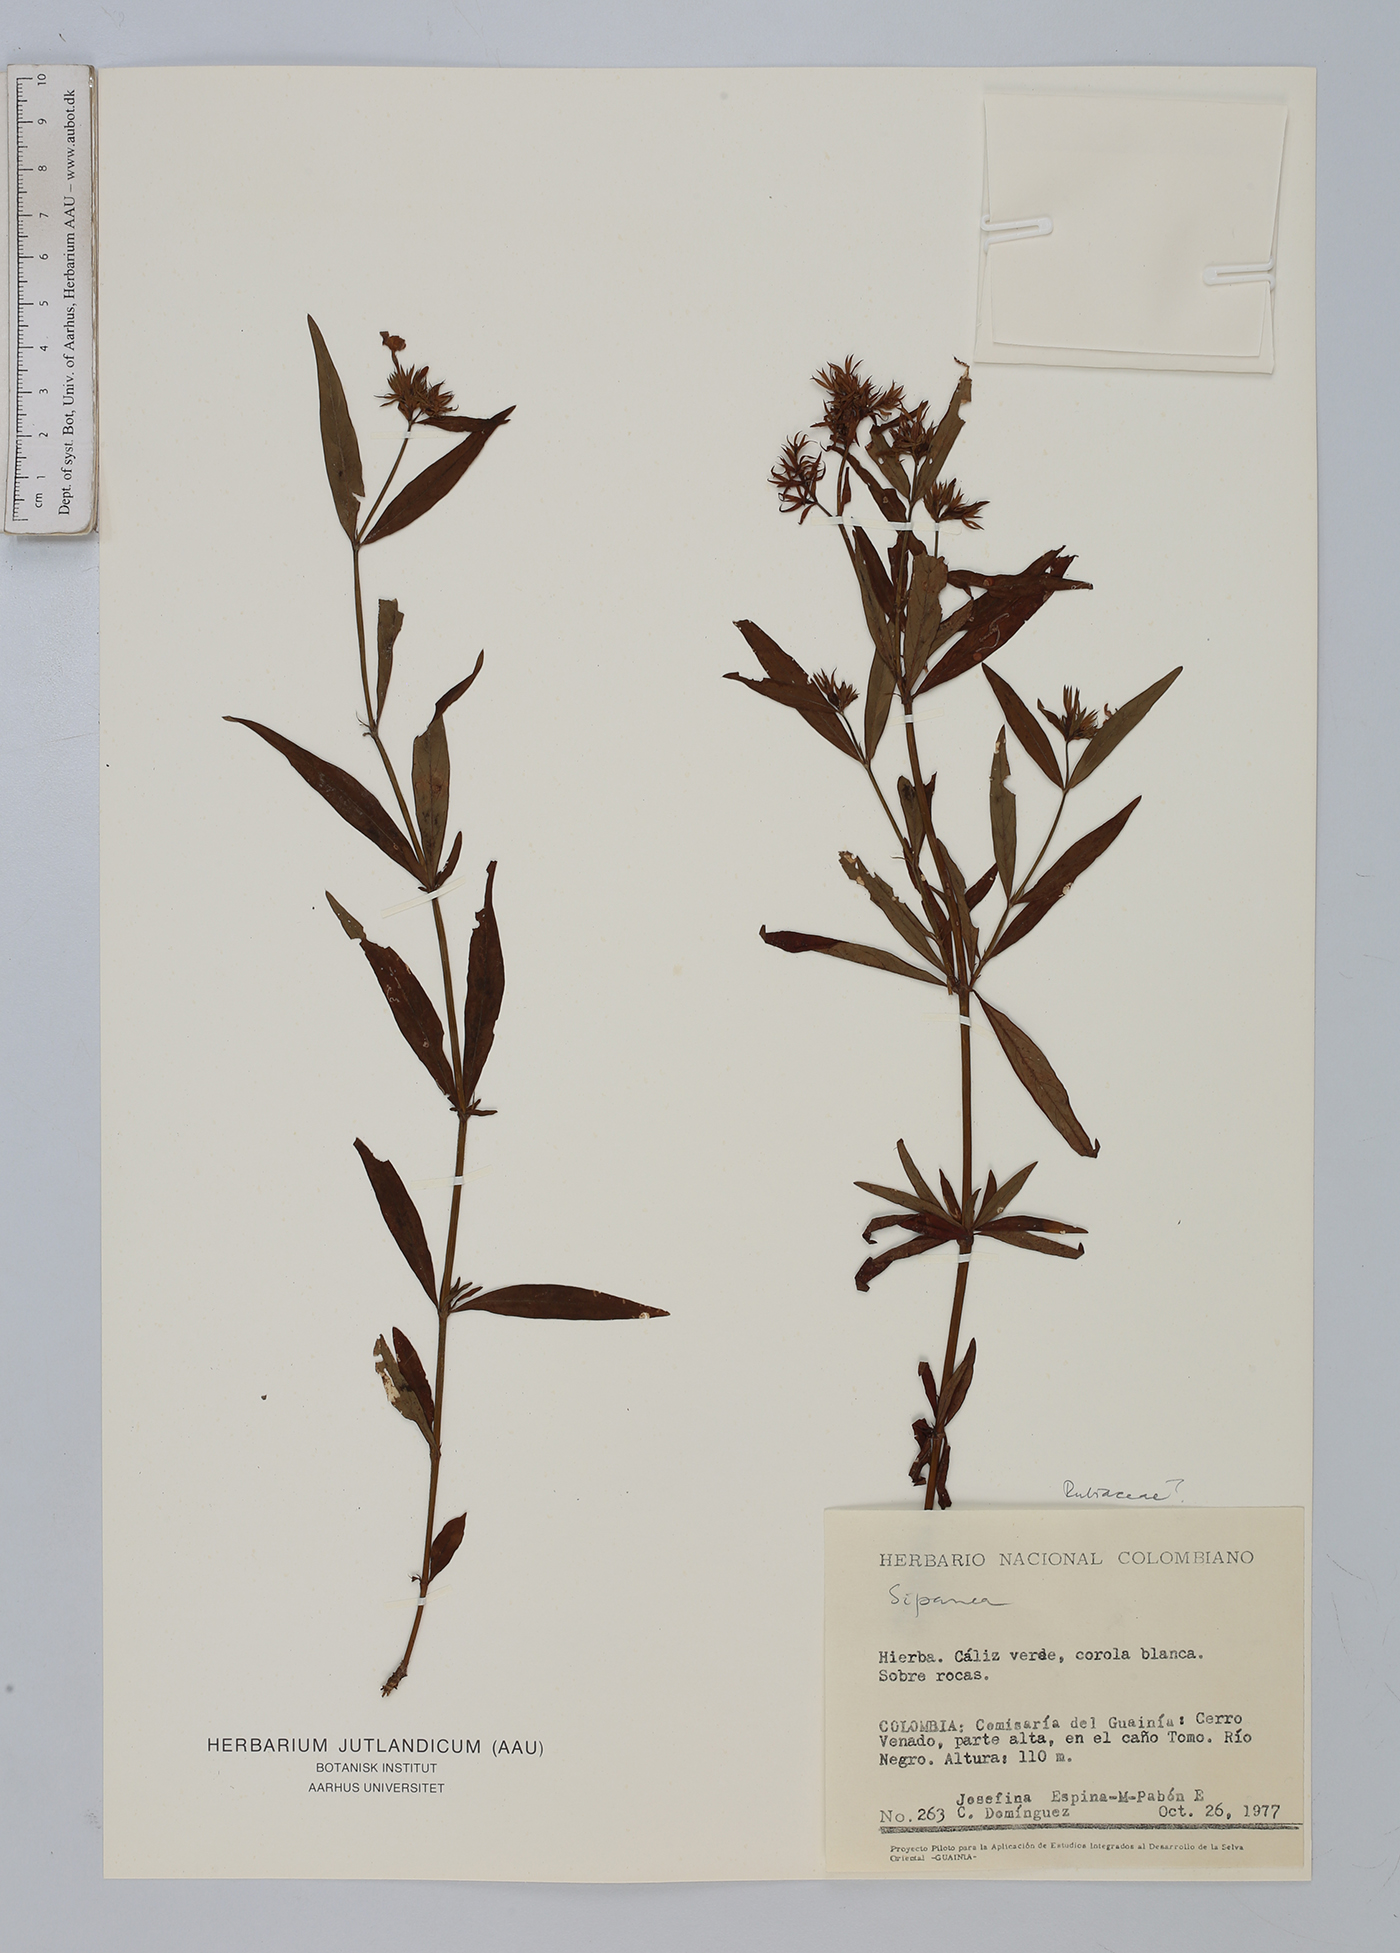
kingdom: Plantae
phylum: Tracheophyta
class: Magnoliopsida
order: Gentianales
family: Rubiaceae
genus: Sipanea
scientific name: Sipanea
